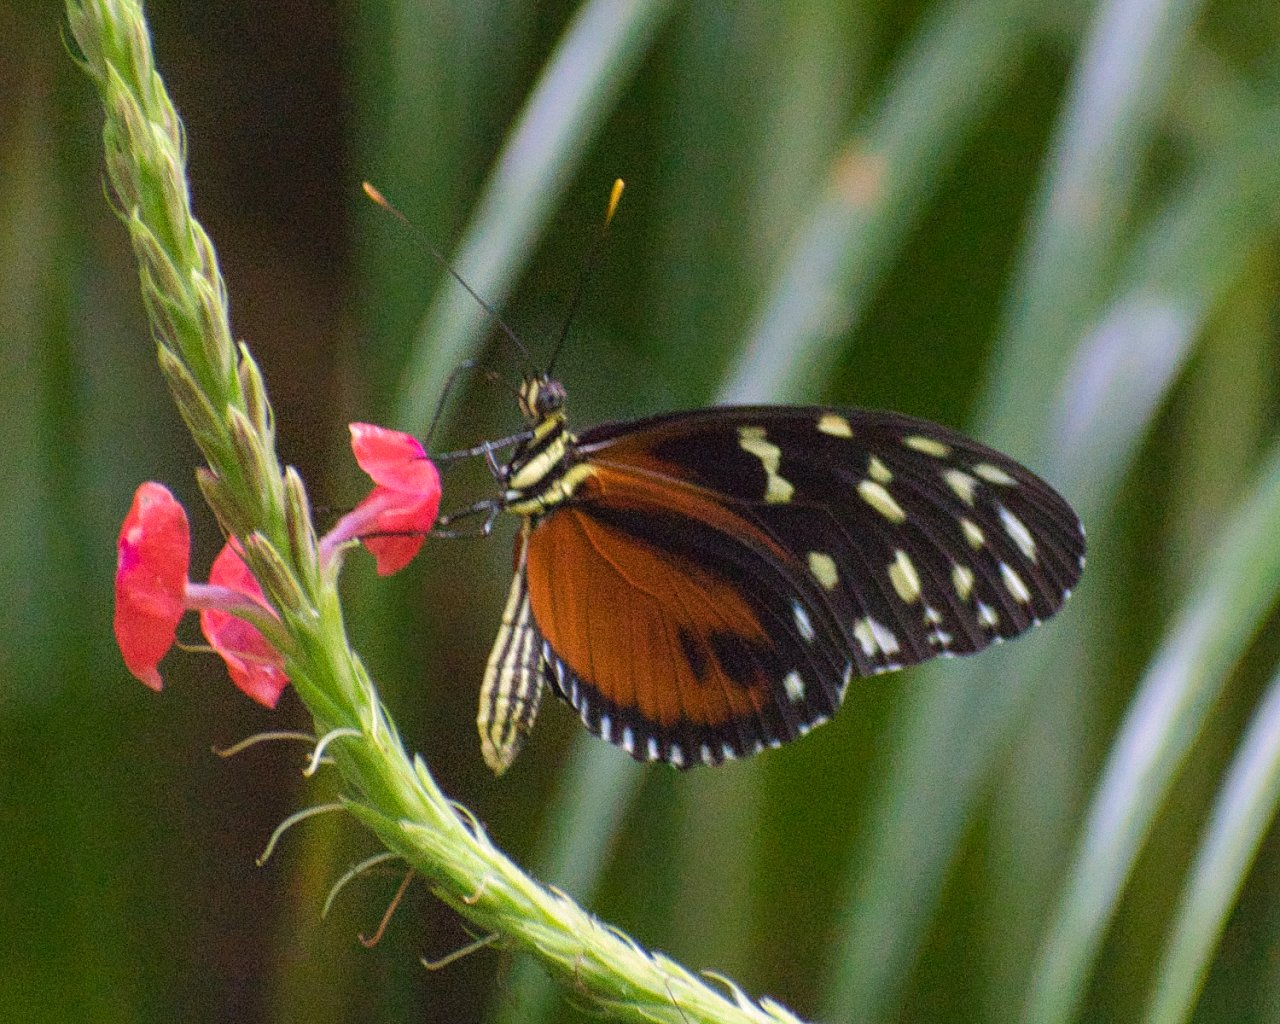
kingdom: Animalia
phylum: Arthropoda
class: Insecta
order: Lepidoptera
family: Nymphalidae
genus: Heliconius
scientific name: Heliconius hecale
